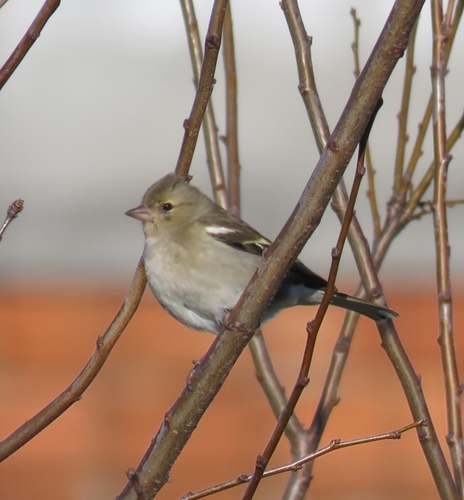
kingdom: Animalia
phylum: Chordata
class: Aves
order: Passeriformes
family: Fringillidae
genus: Fringilla
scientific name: Fringilla coelebs
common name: Common chaffinch
